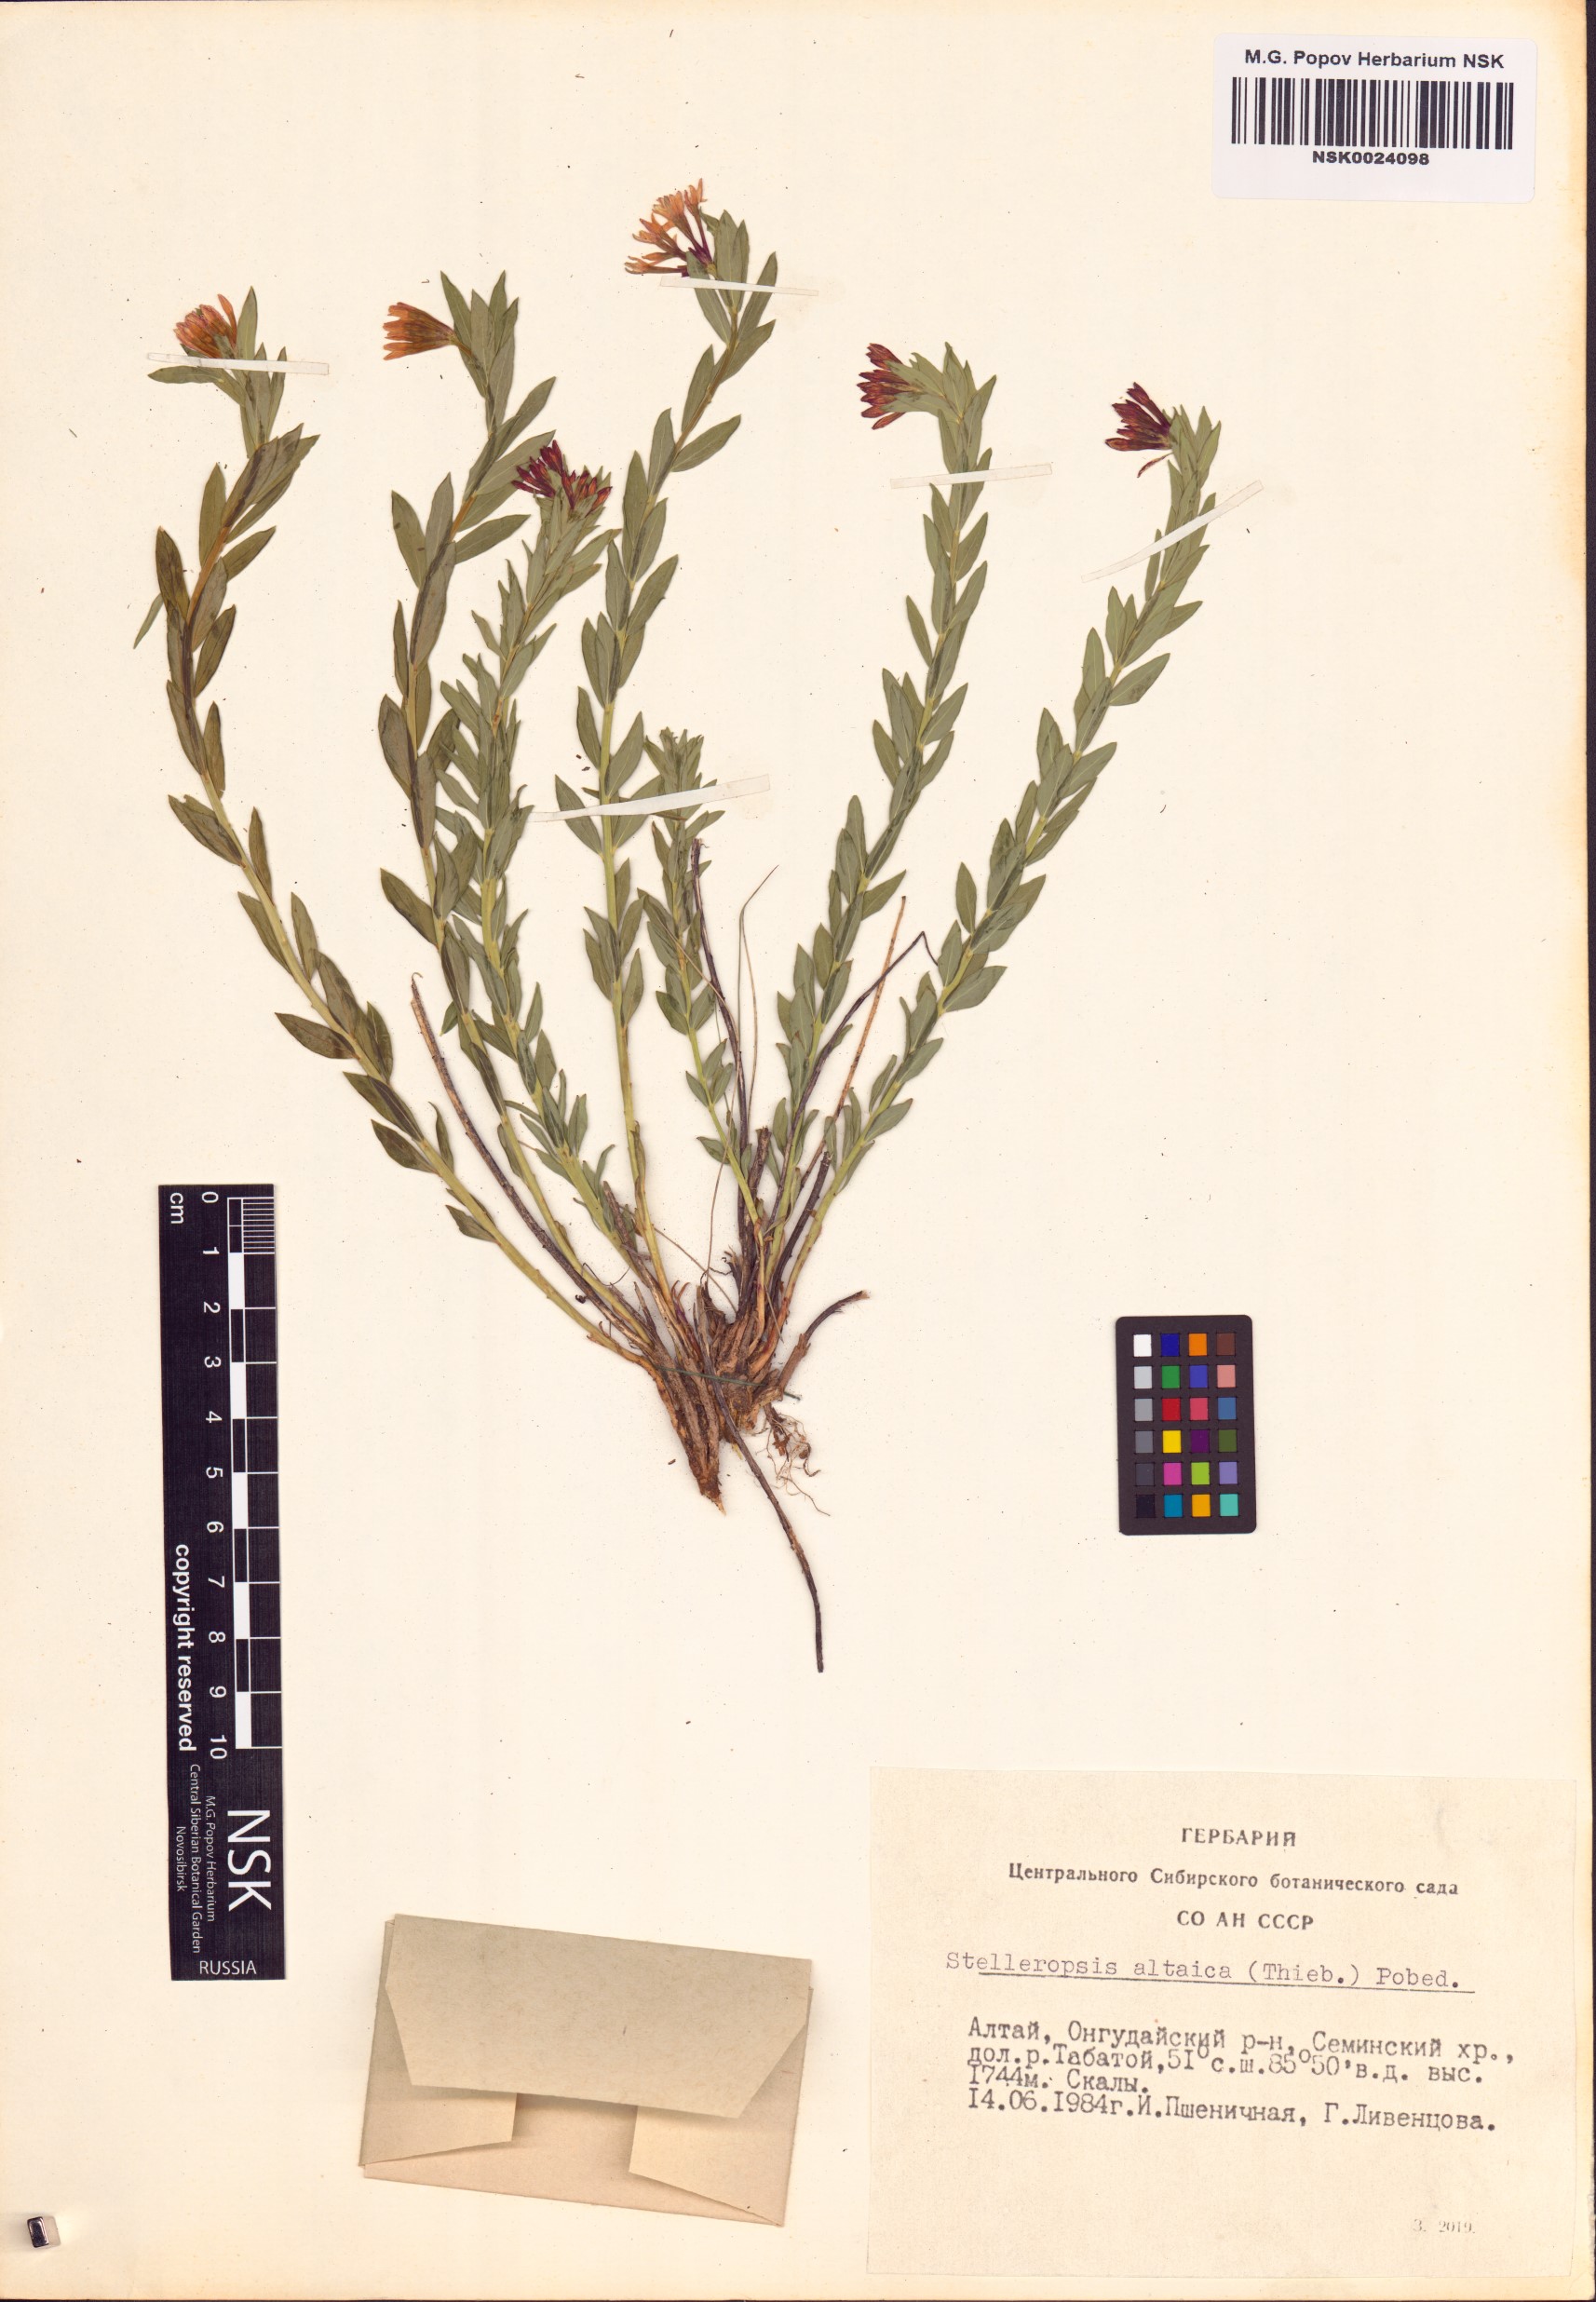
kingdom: Plantae
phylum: Tracheophyta
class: Magnoliopsida
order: Malvales
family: Thymelaeaceae
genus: Diarthron
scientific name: Diarthron altaicum
